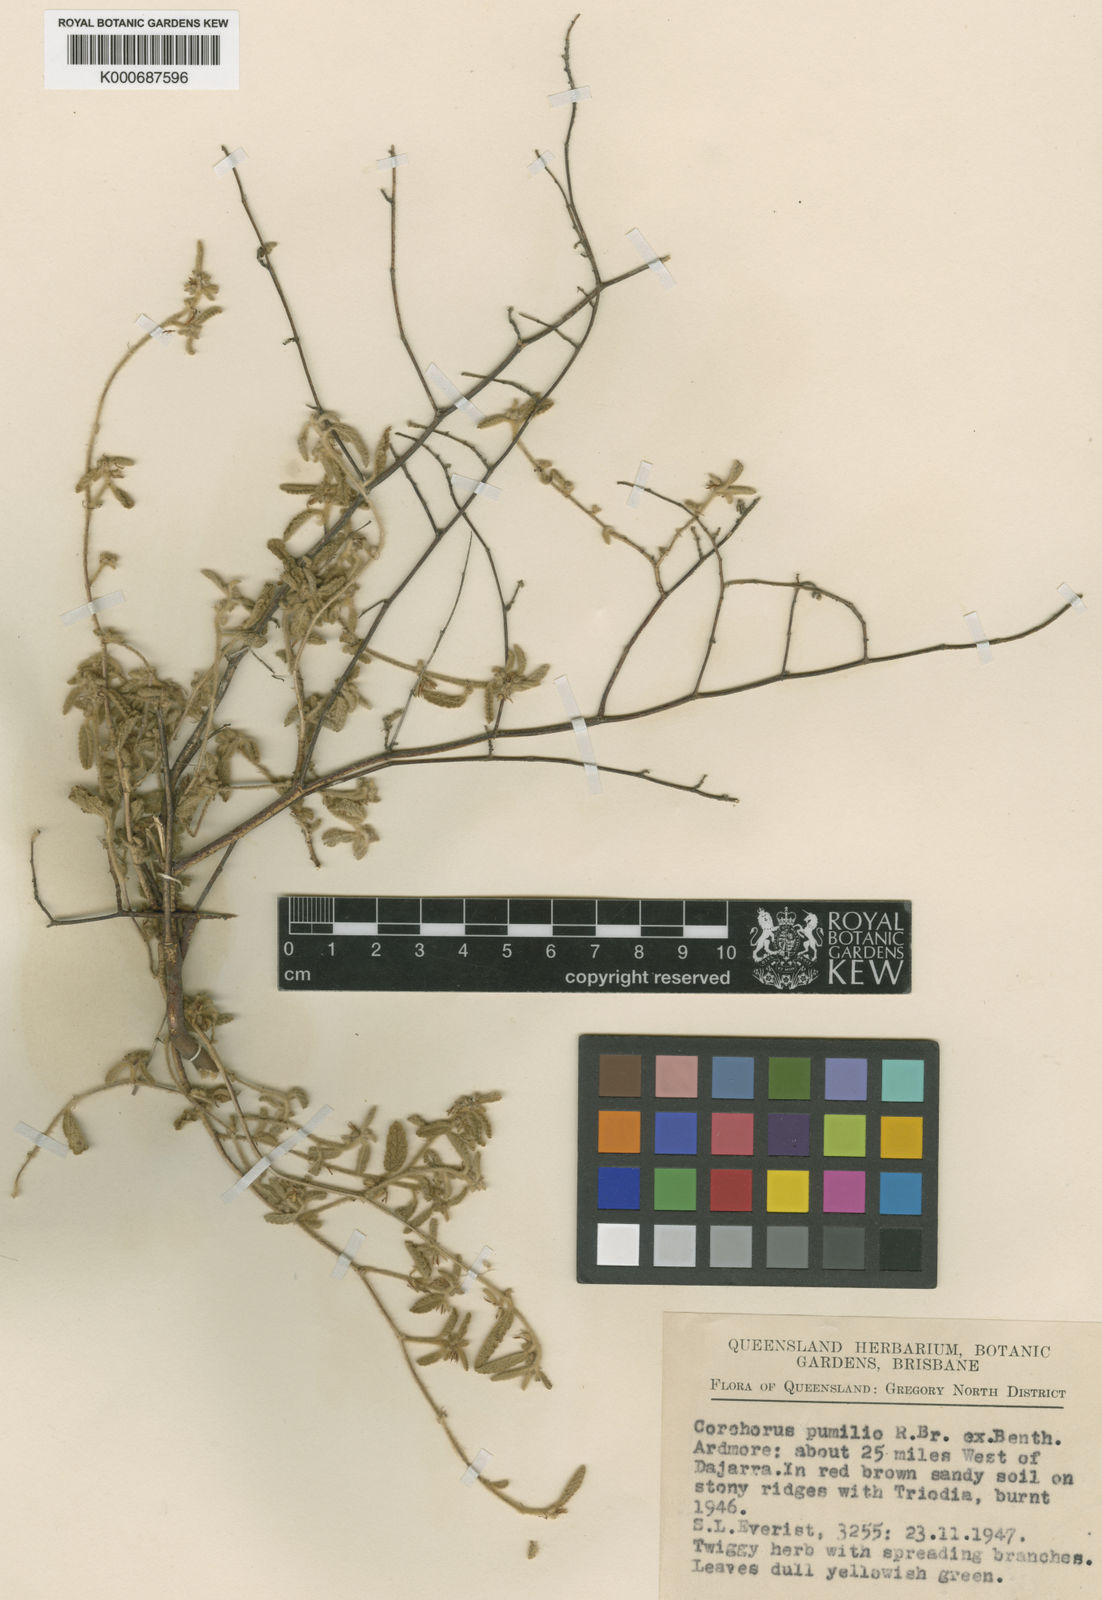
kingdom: Plantae
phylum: Tracheophyta
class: Magnoliopsida
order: Malvales
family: Malvaceae
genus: Corchorus
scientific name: Corchorus pumilio
